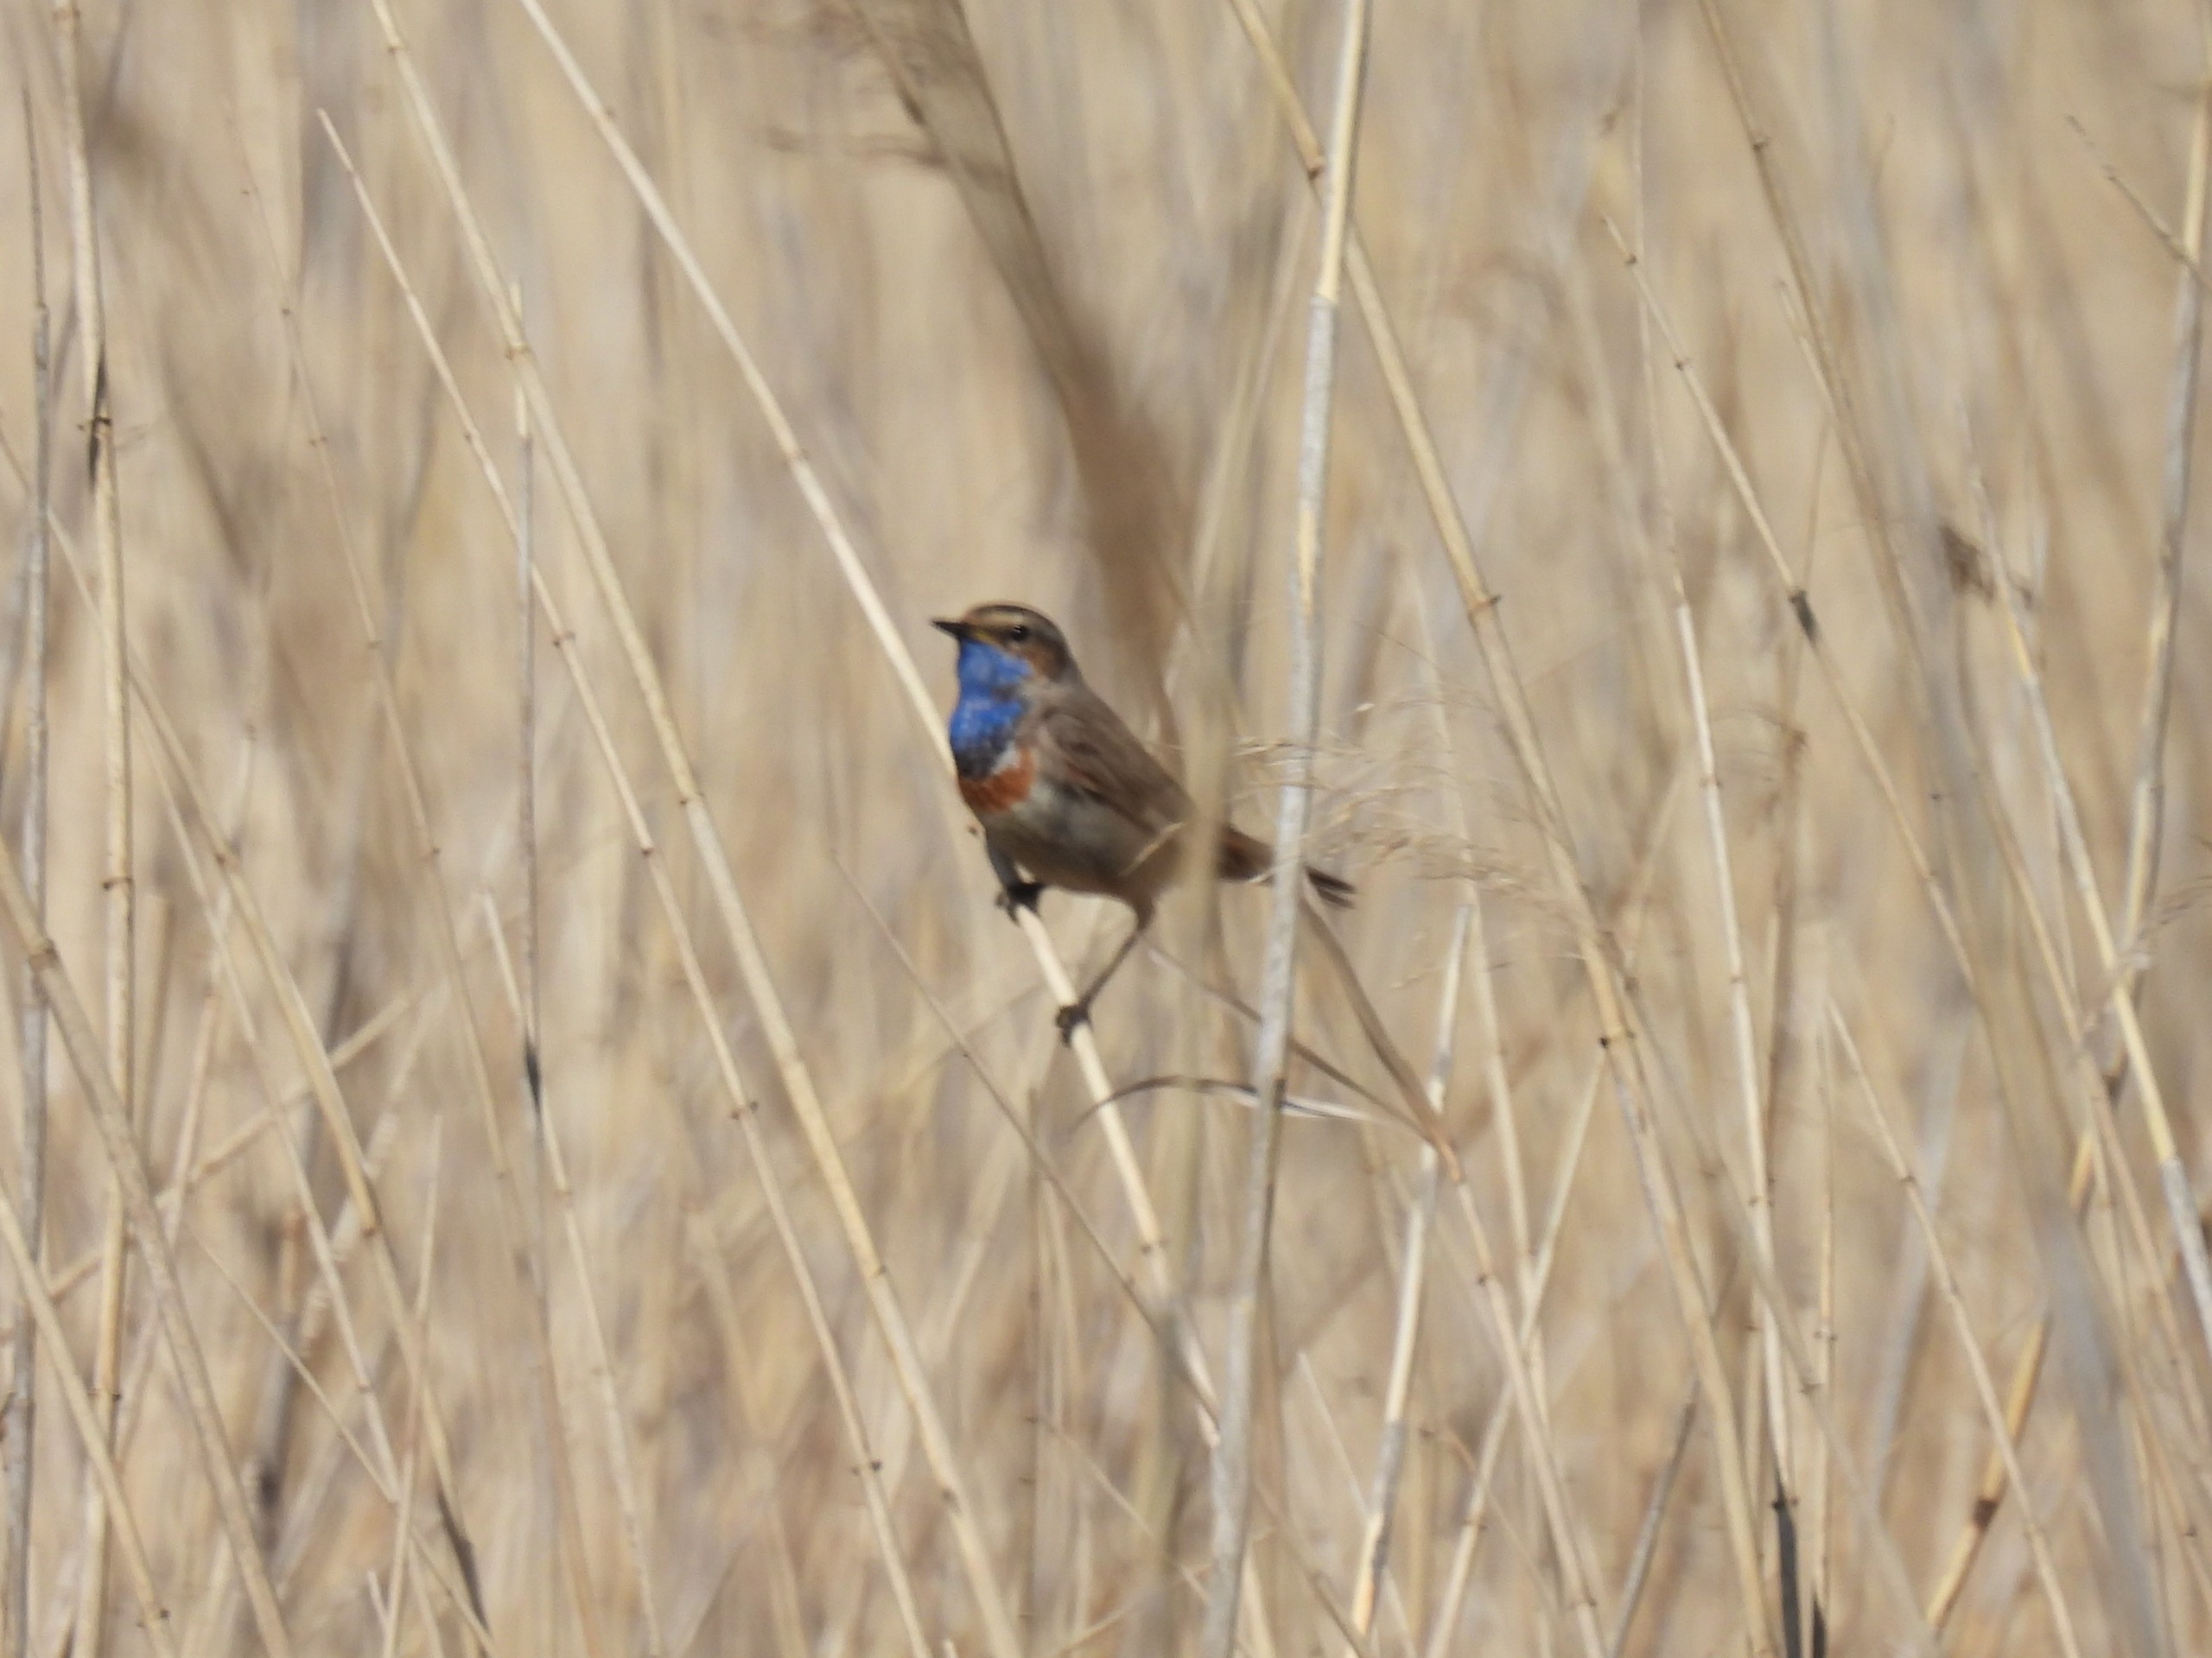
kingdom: Animalia
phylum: Chordata
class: Aves
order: Passeriformes
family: Muscicapidae
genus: Luscinia
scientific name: Luscinia svecica
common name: Blåhals
